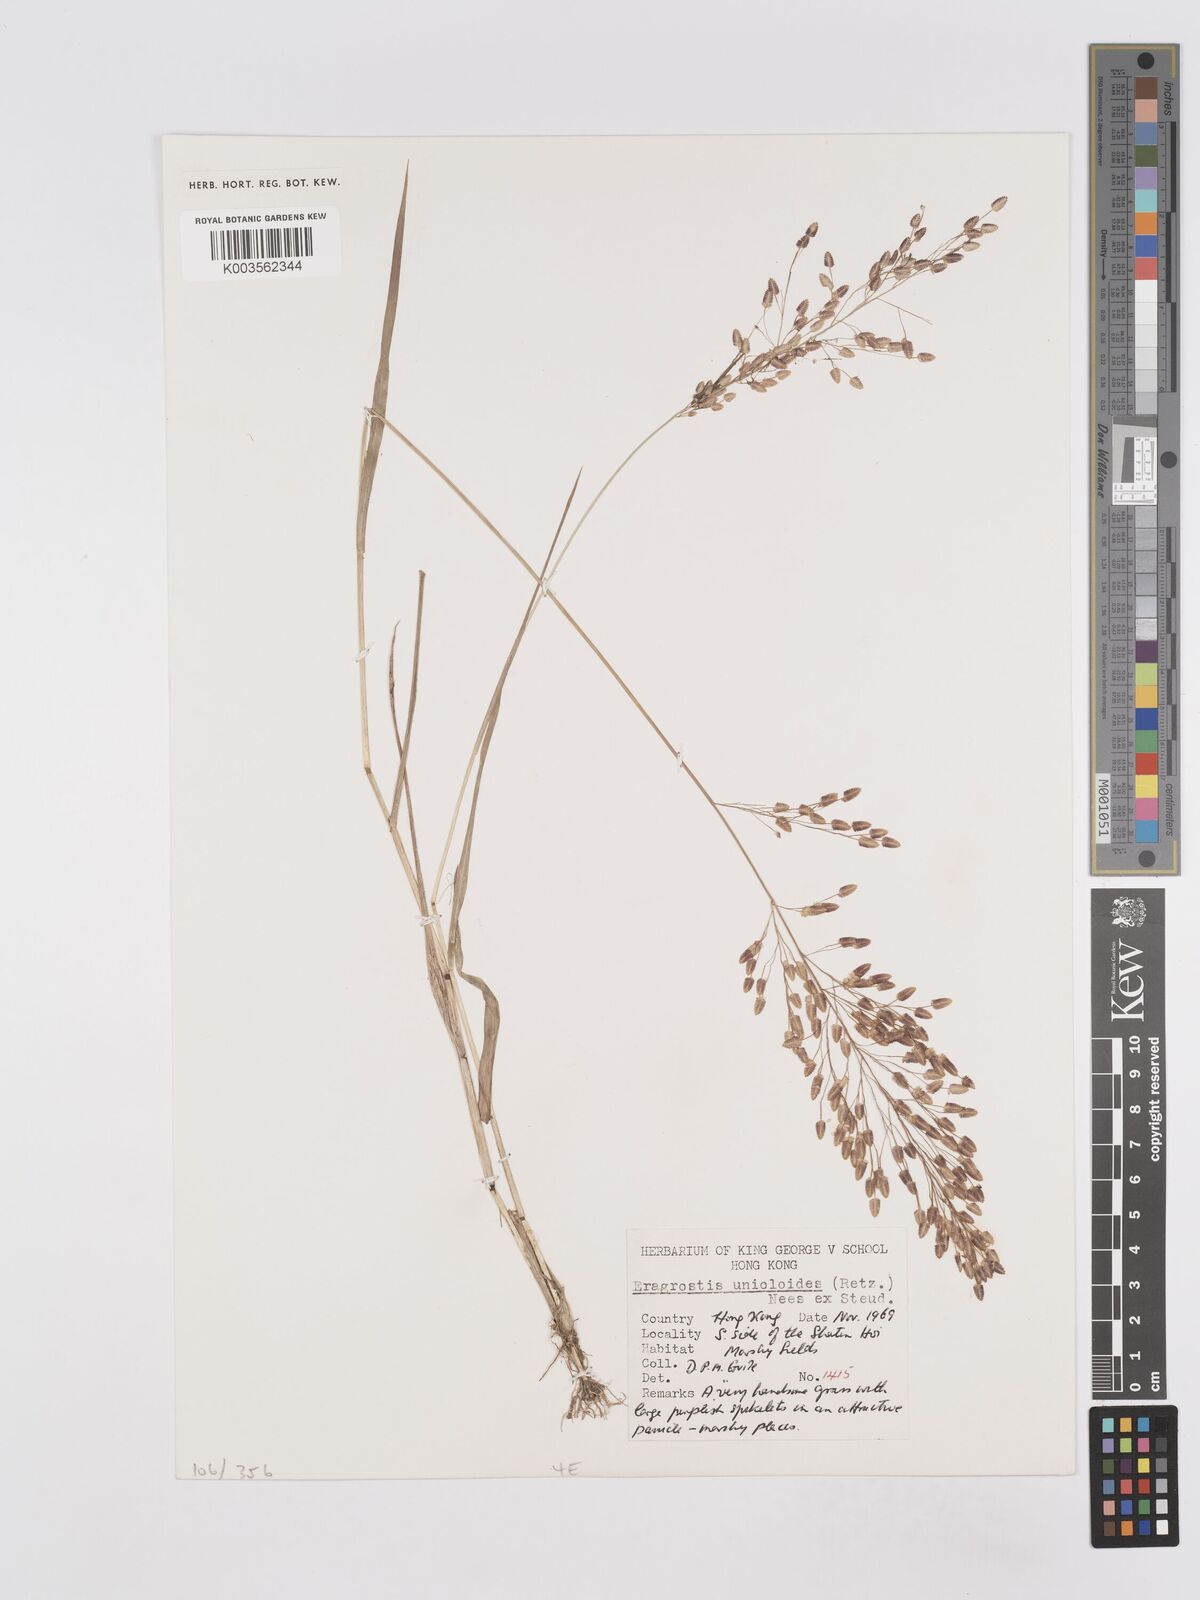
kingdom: Plantae
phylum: Tracheophyta
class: Liliopsida
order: Poales
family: Poaceae
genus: Eragrostis
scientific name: Eragrostis unioloides
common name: Chinese lovegrass
